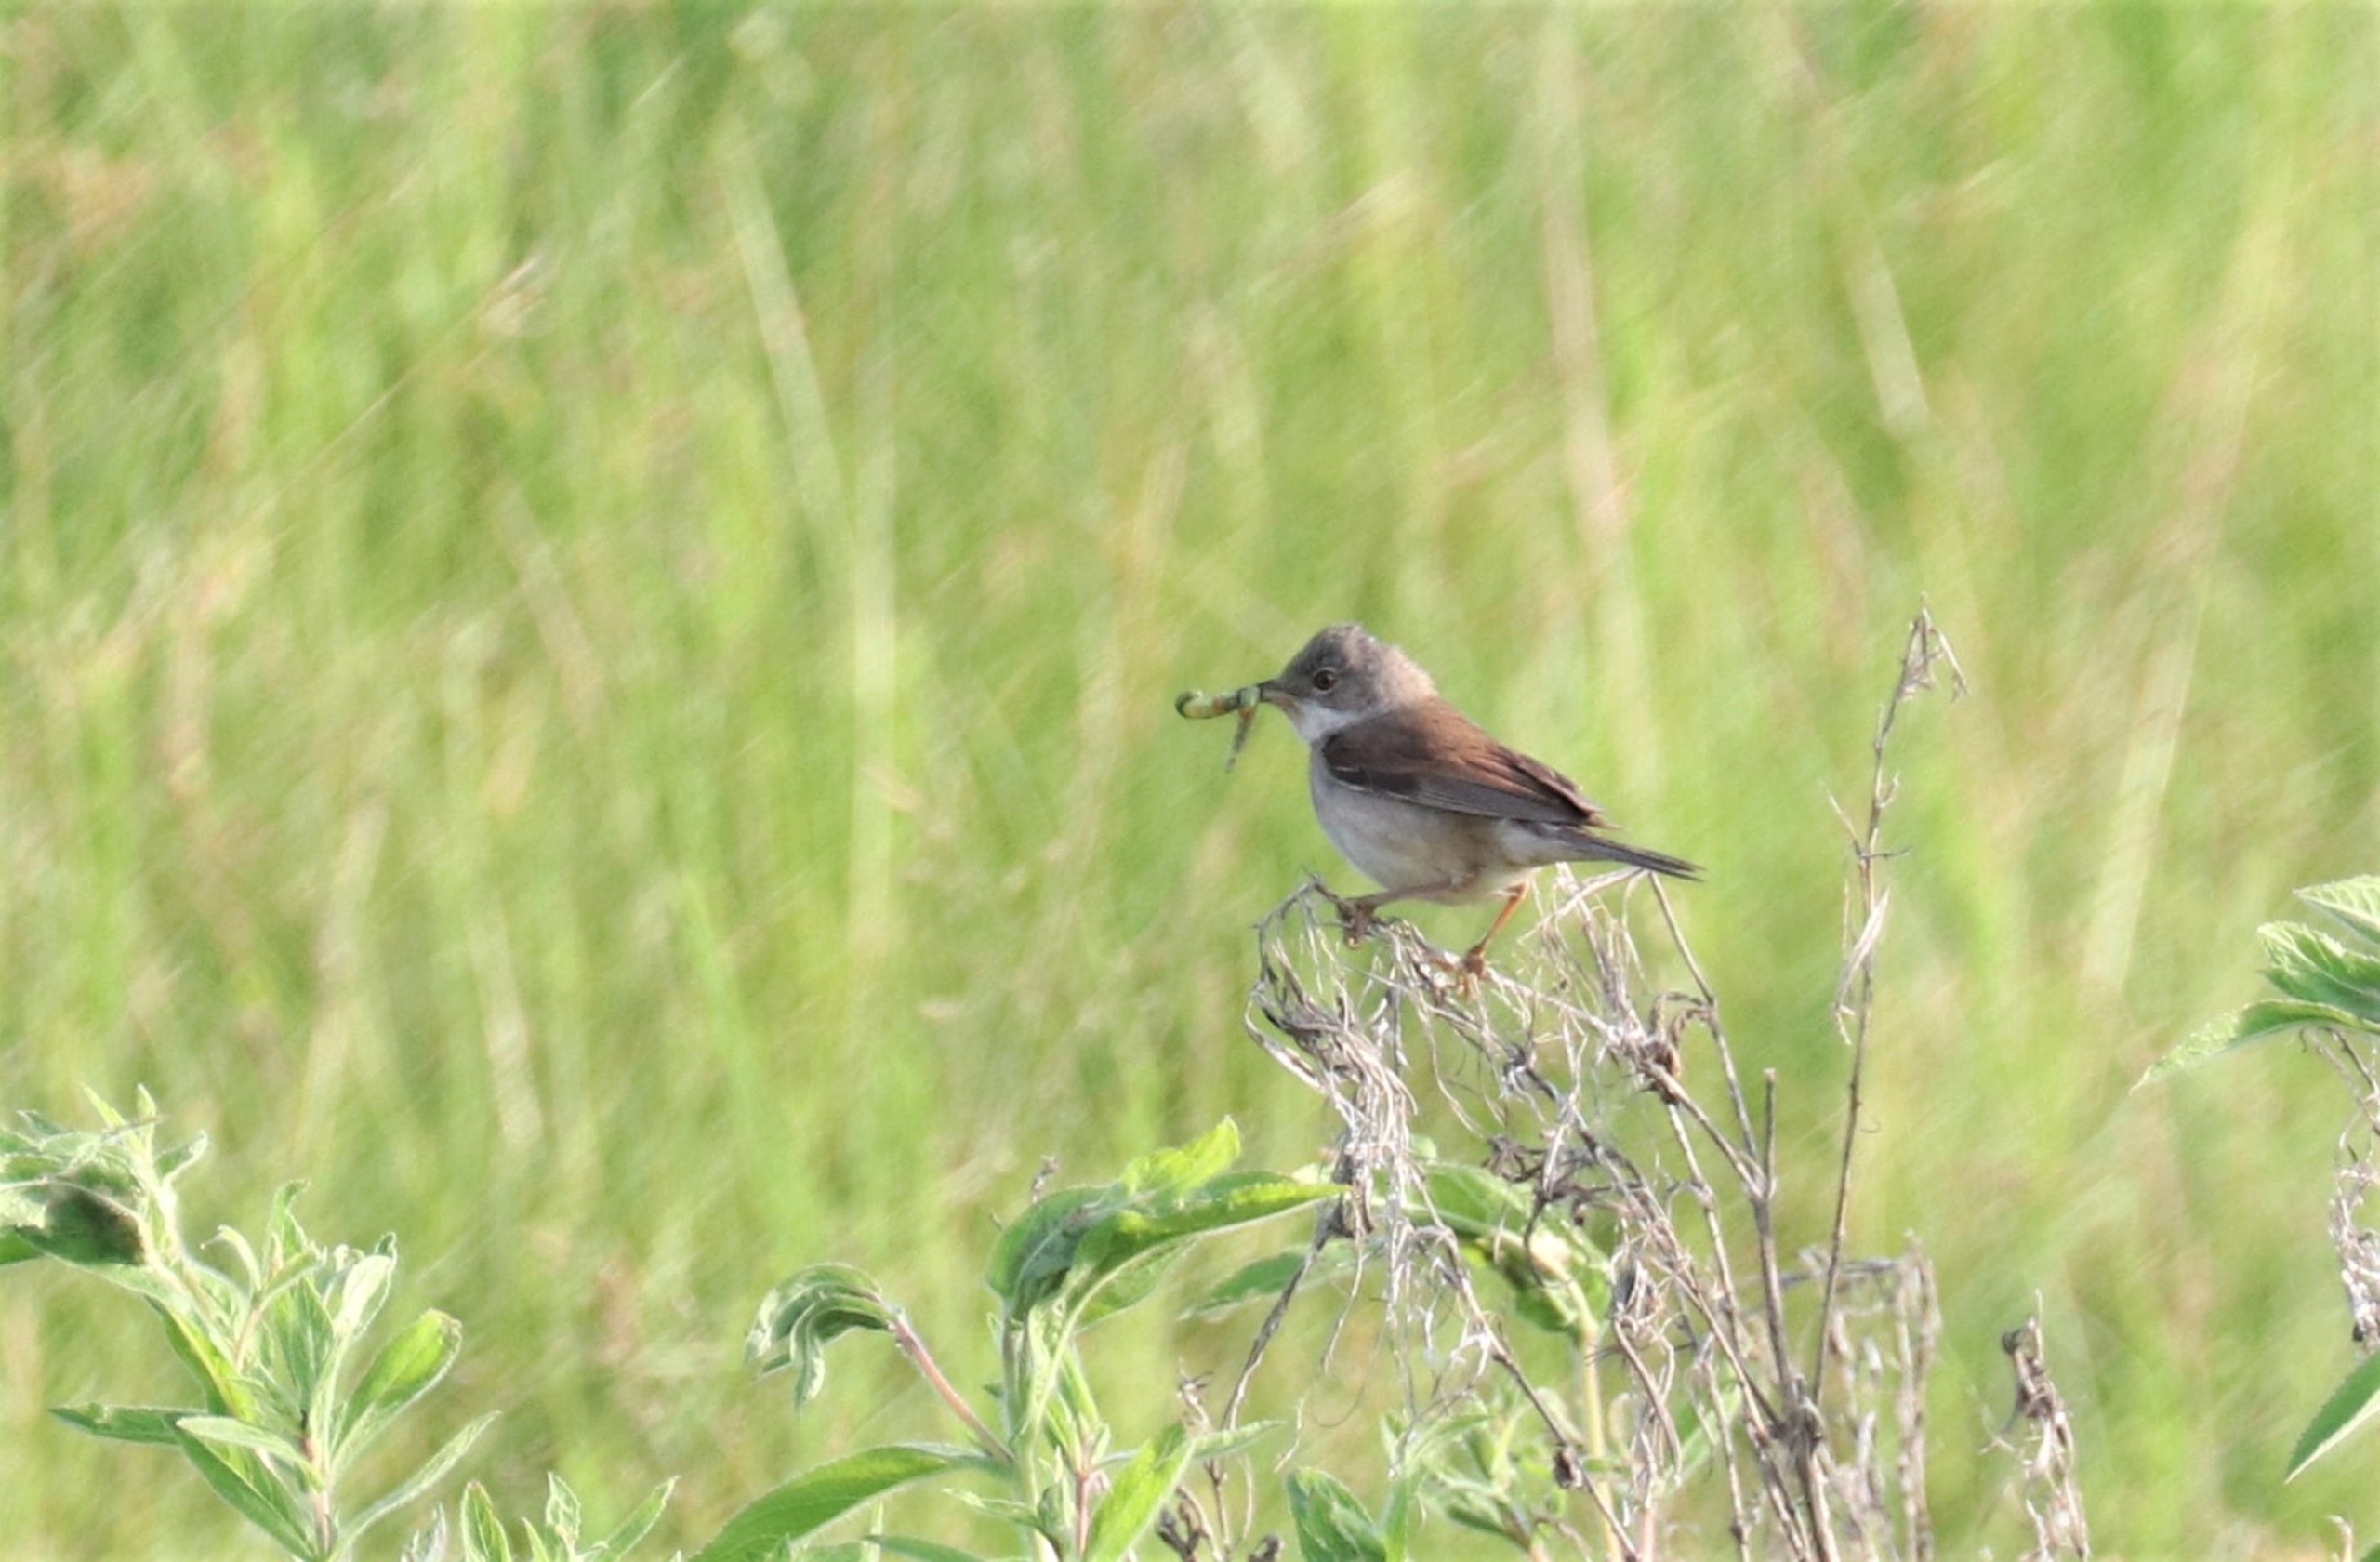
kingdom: Animalia
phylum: Chordata
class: Aves
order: Passeriformes
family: Sylviidae
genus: Sylvia
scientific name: Sylvia communis
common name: Tornsanger
